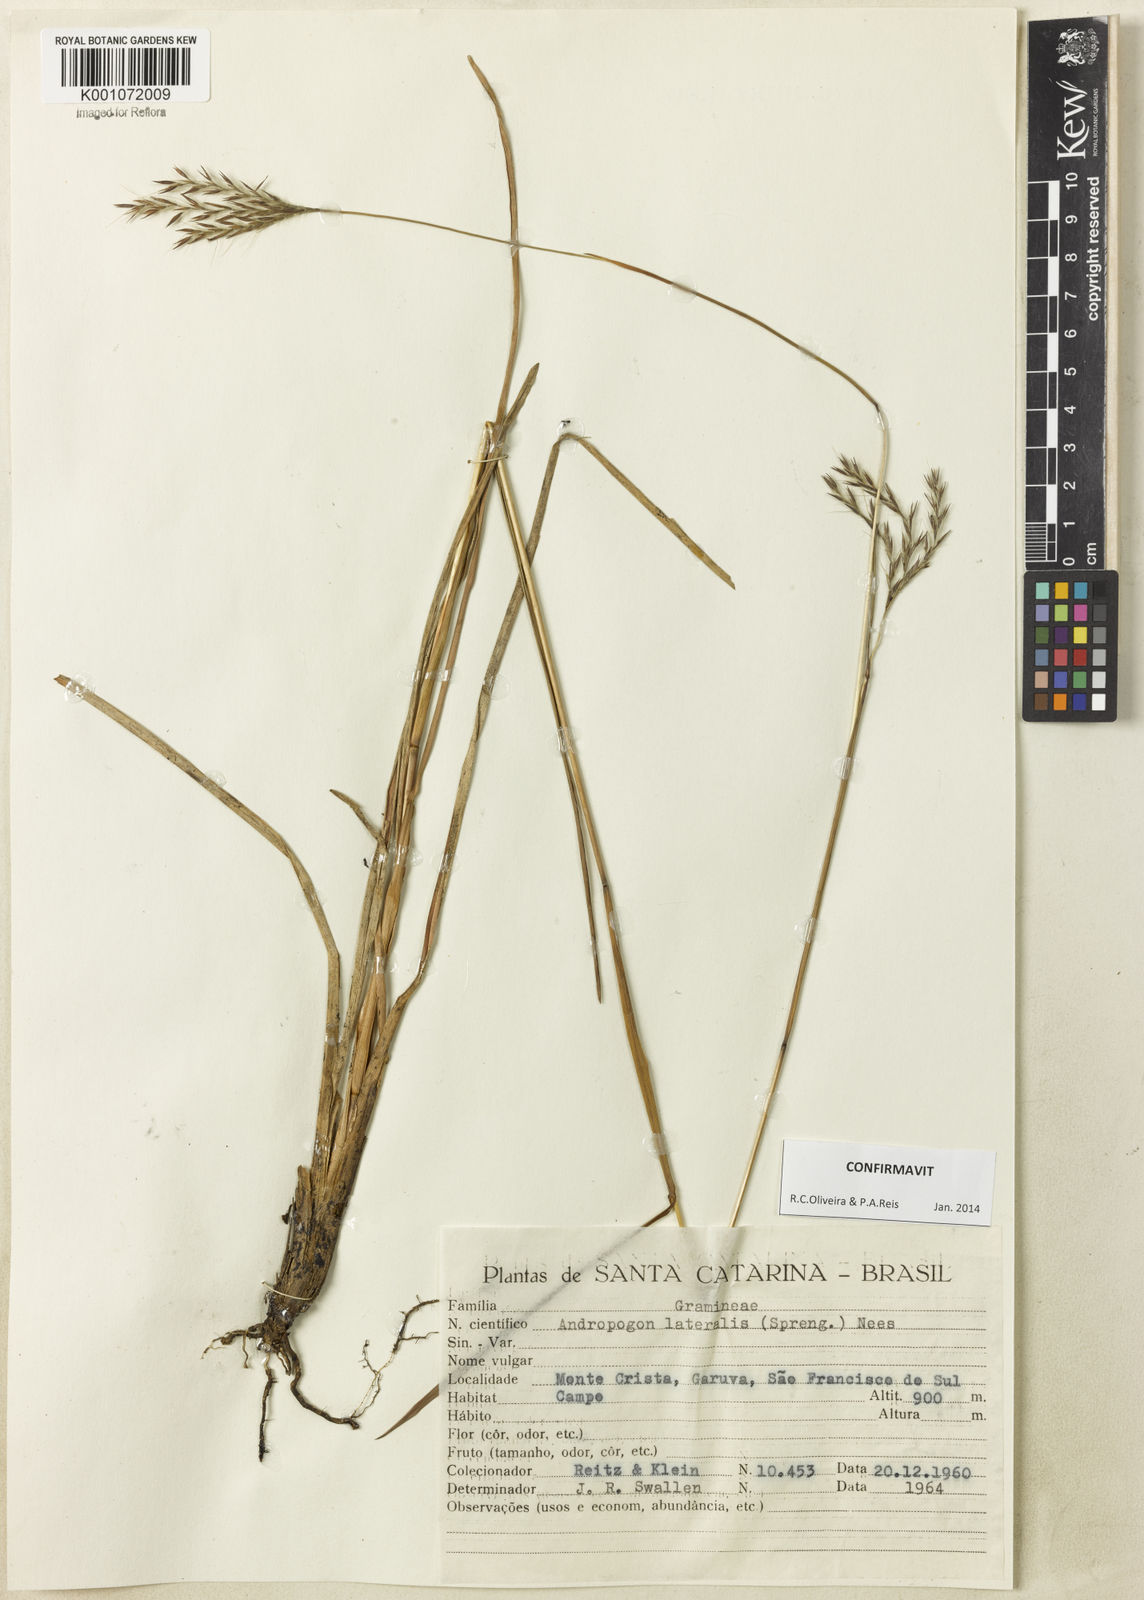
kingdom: Plantae
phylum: Tracheophyta
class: Liliopsida
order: Poales
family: Poaceae
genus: Andropogon
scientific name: Andropogon lateralis
